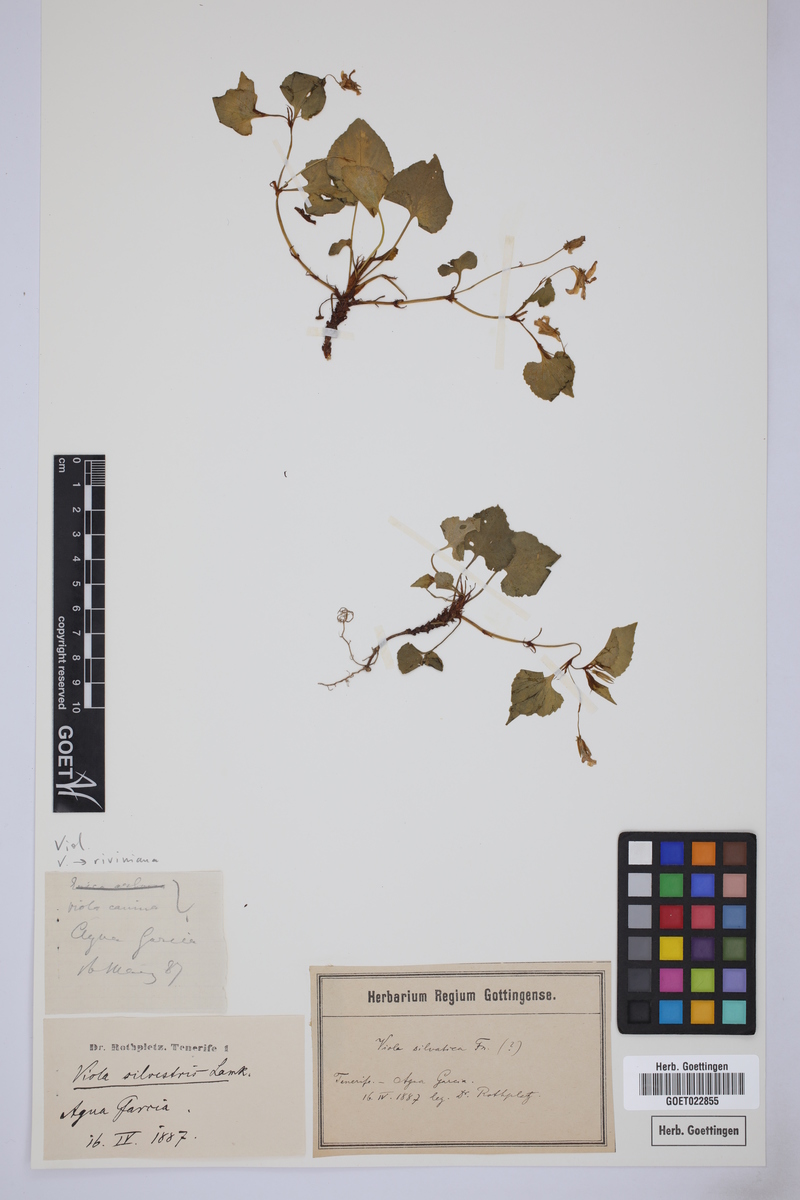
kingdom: Plantae
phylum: Tracheophyta
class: Magnoliopsida
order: Malpighiales
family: Violaceae
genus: Viola
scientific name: Viola riviniana
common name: Common dog-violet
